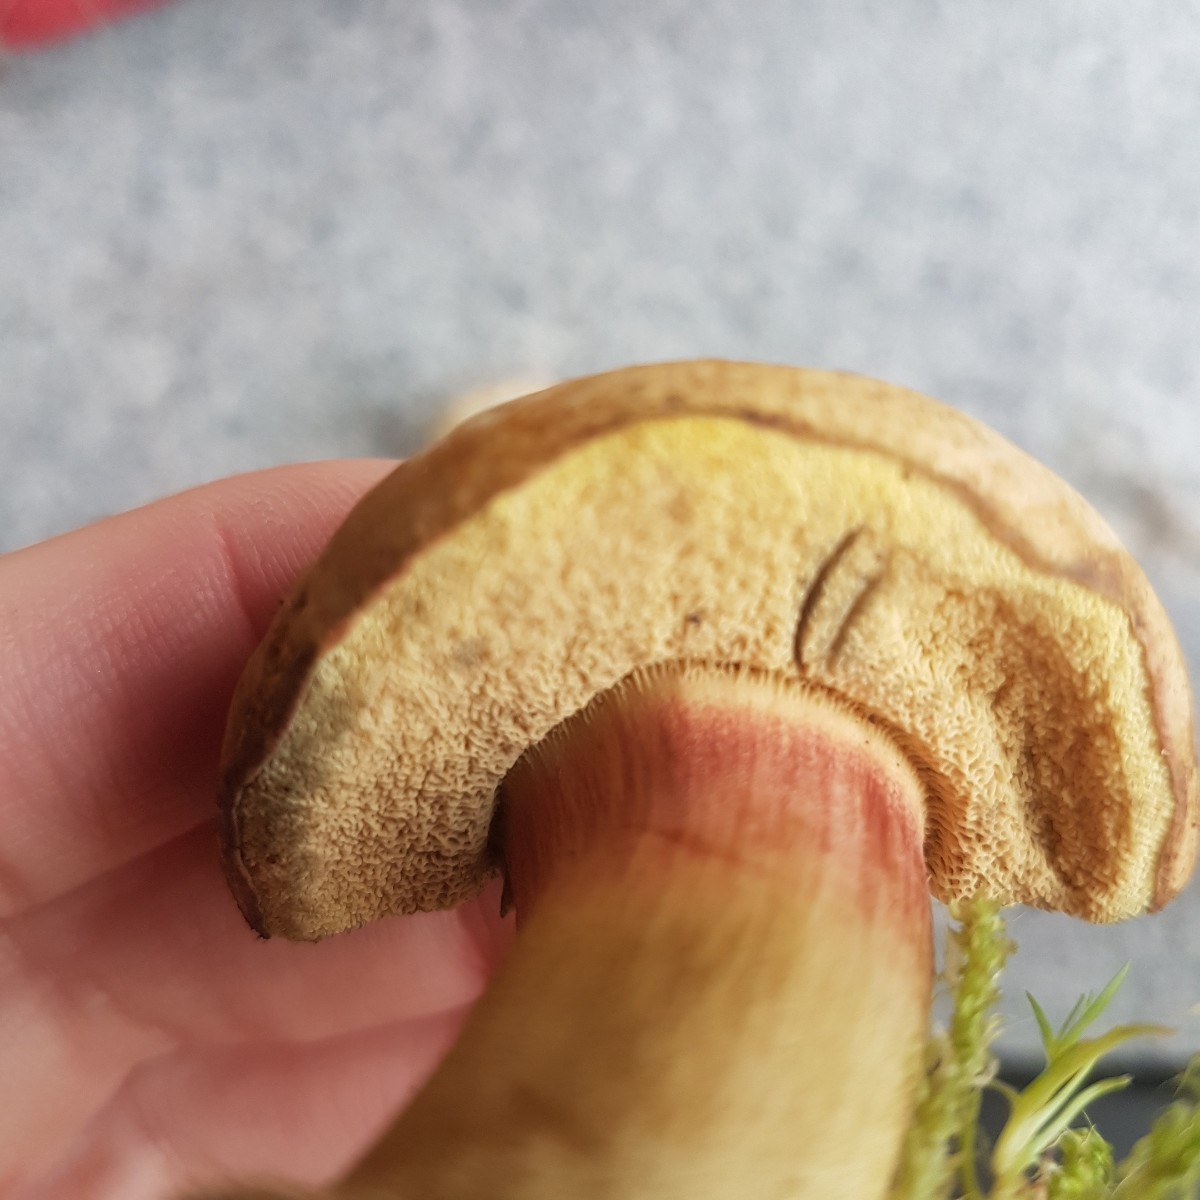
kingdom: Fungi
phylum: Basidiomycota
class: Agaricomycetes
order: Boletales
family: Boletaceae
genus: Hortiboletus
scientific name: Hortiboletus bubalinus
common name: aurora-rørhat
